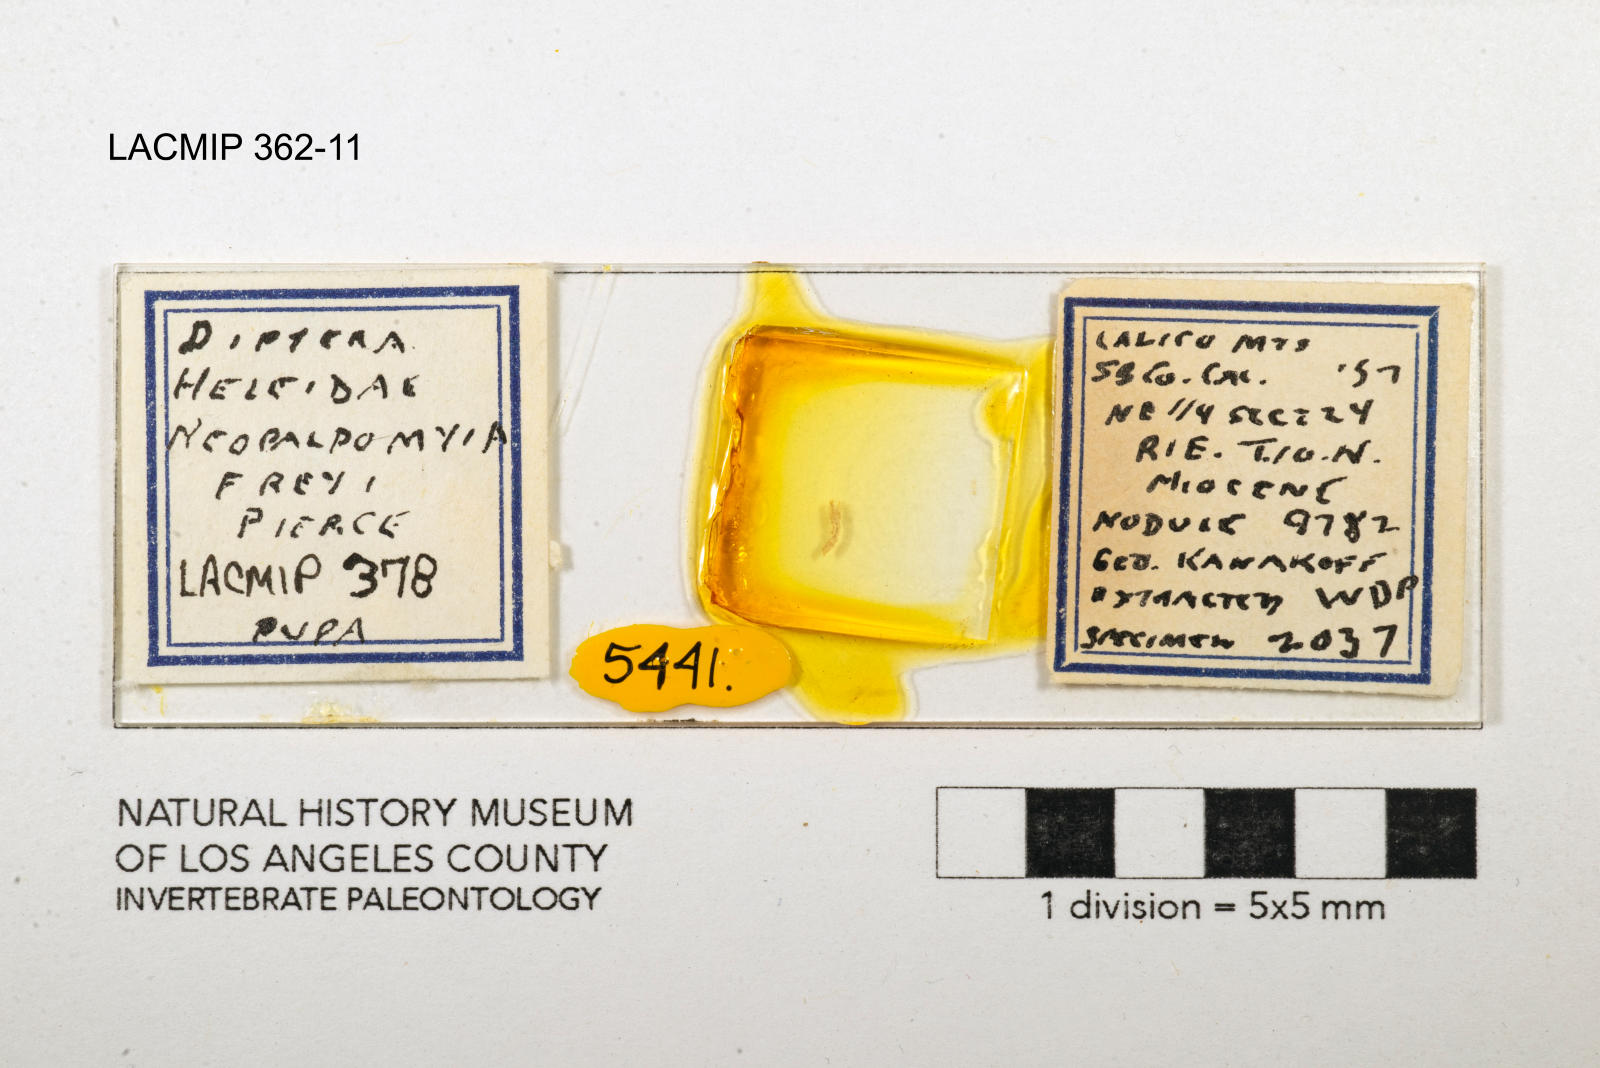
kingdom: Animalia
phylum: Arthropoda
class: Insecta
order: Diptera
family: Ceratopogonidae
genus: Palpomyia
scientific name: Palpomyia freyi
